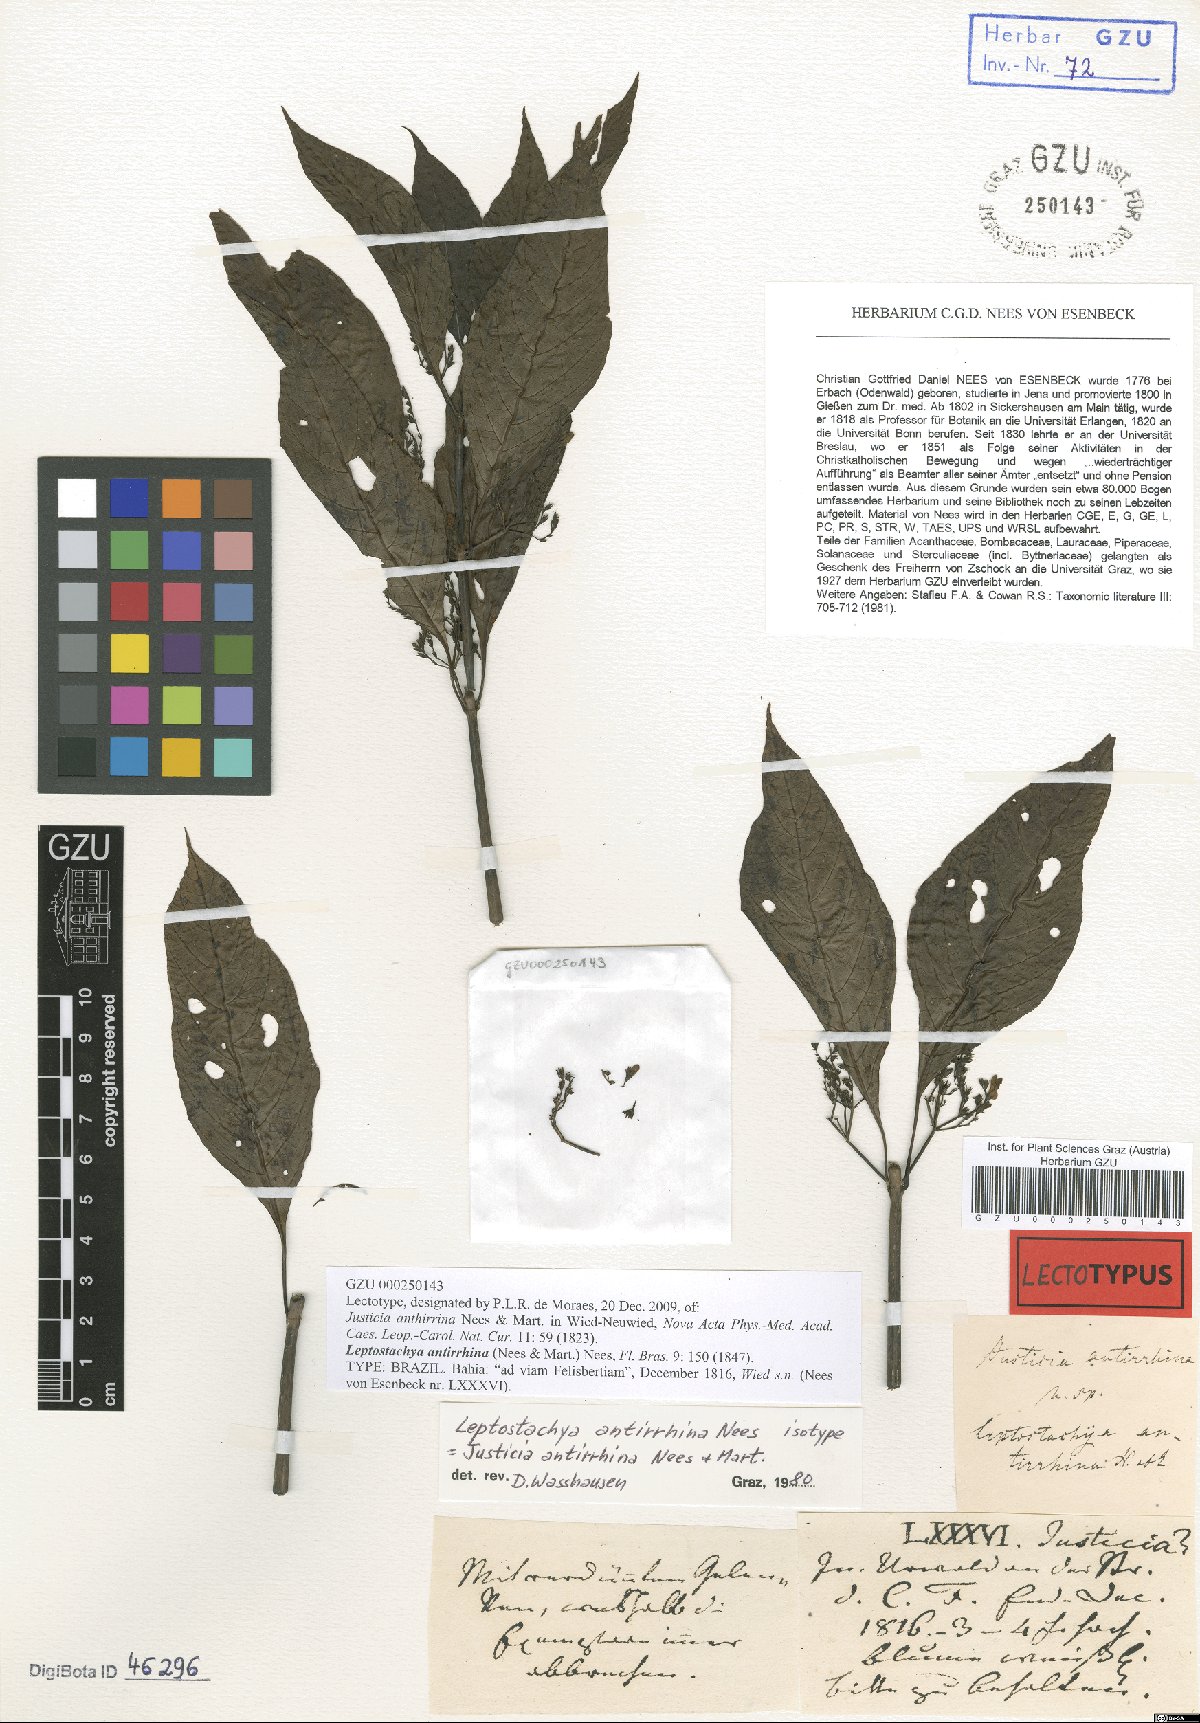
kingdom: Plantae
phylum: Tracheophyta
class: Magnoliopsida
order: Lamiales
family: Acanthaceae
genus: Justicia
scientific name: Justicia antirrhina
